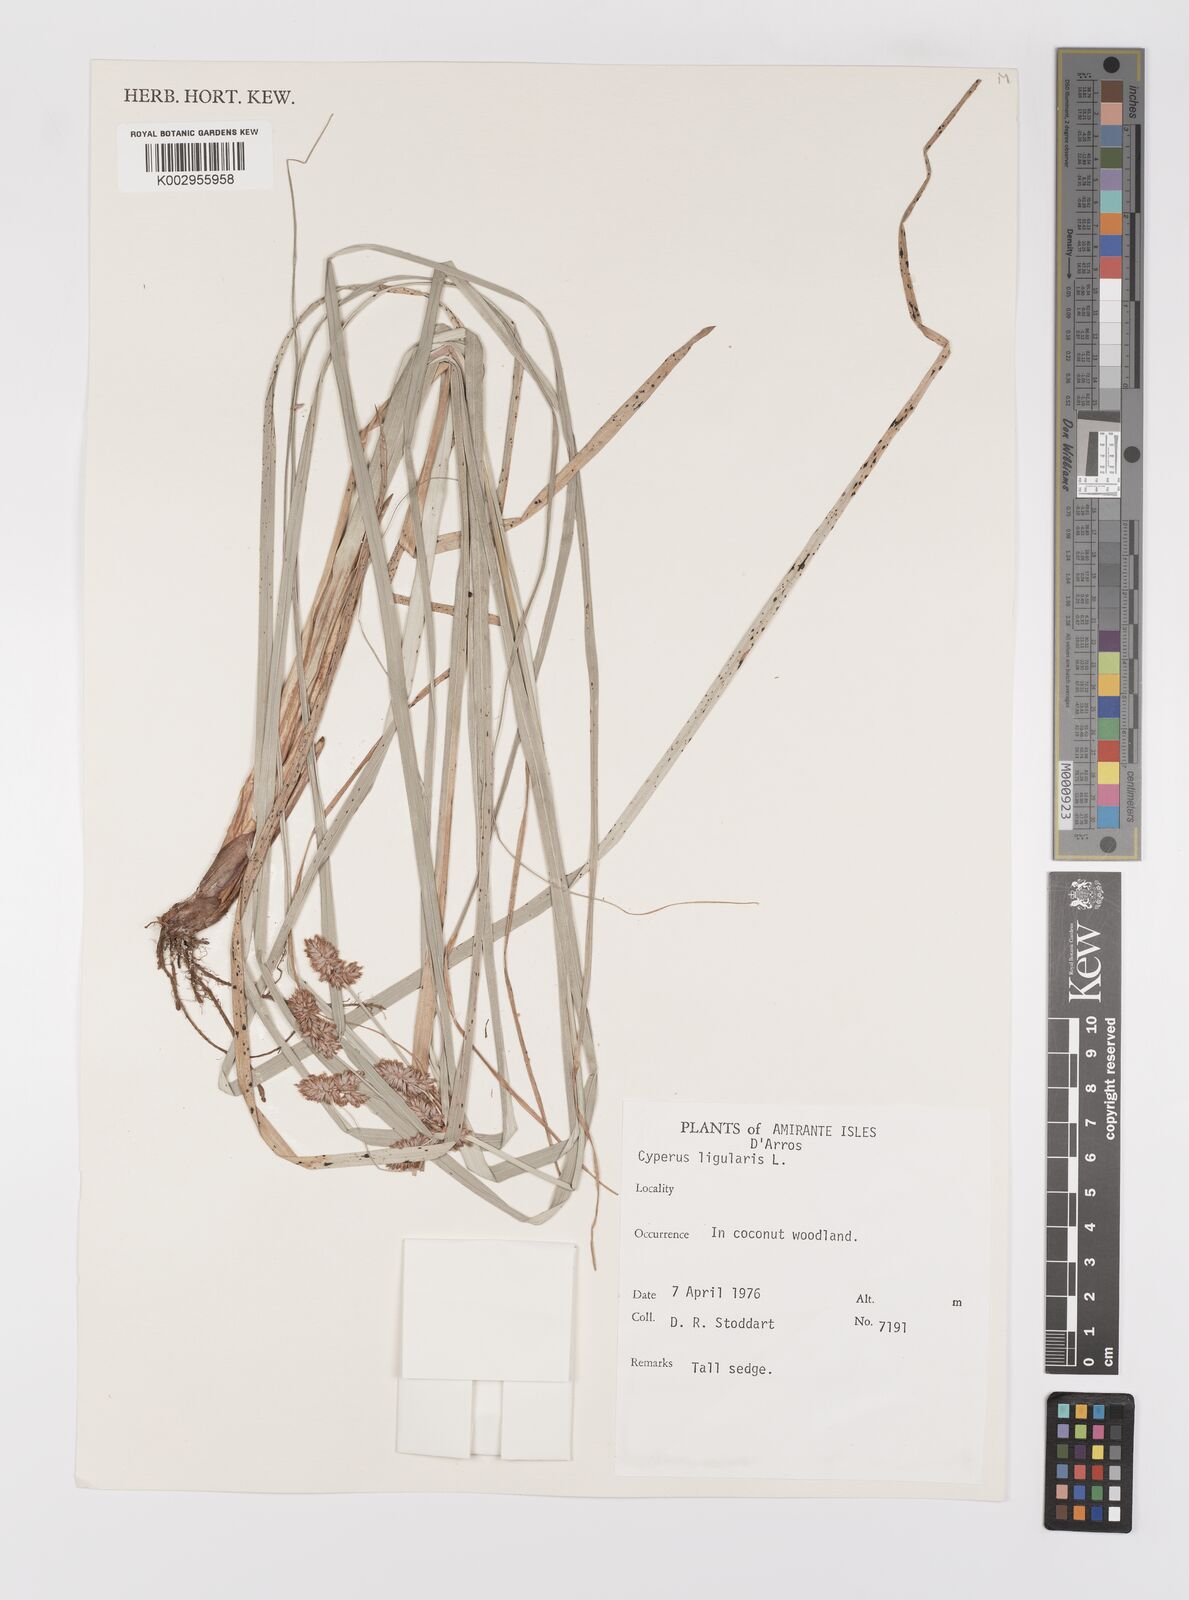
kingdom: Plantae
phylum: Tracheophyta
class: Liliopsida
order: Poales
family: Cyperaceae
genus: Cyperus
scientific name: Cyperus ligularis
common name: Swamp flat sedge
